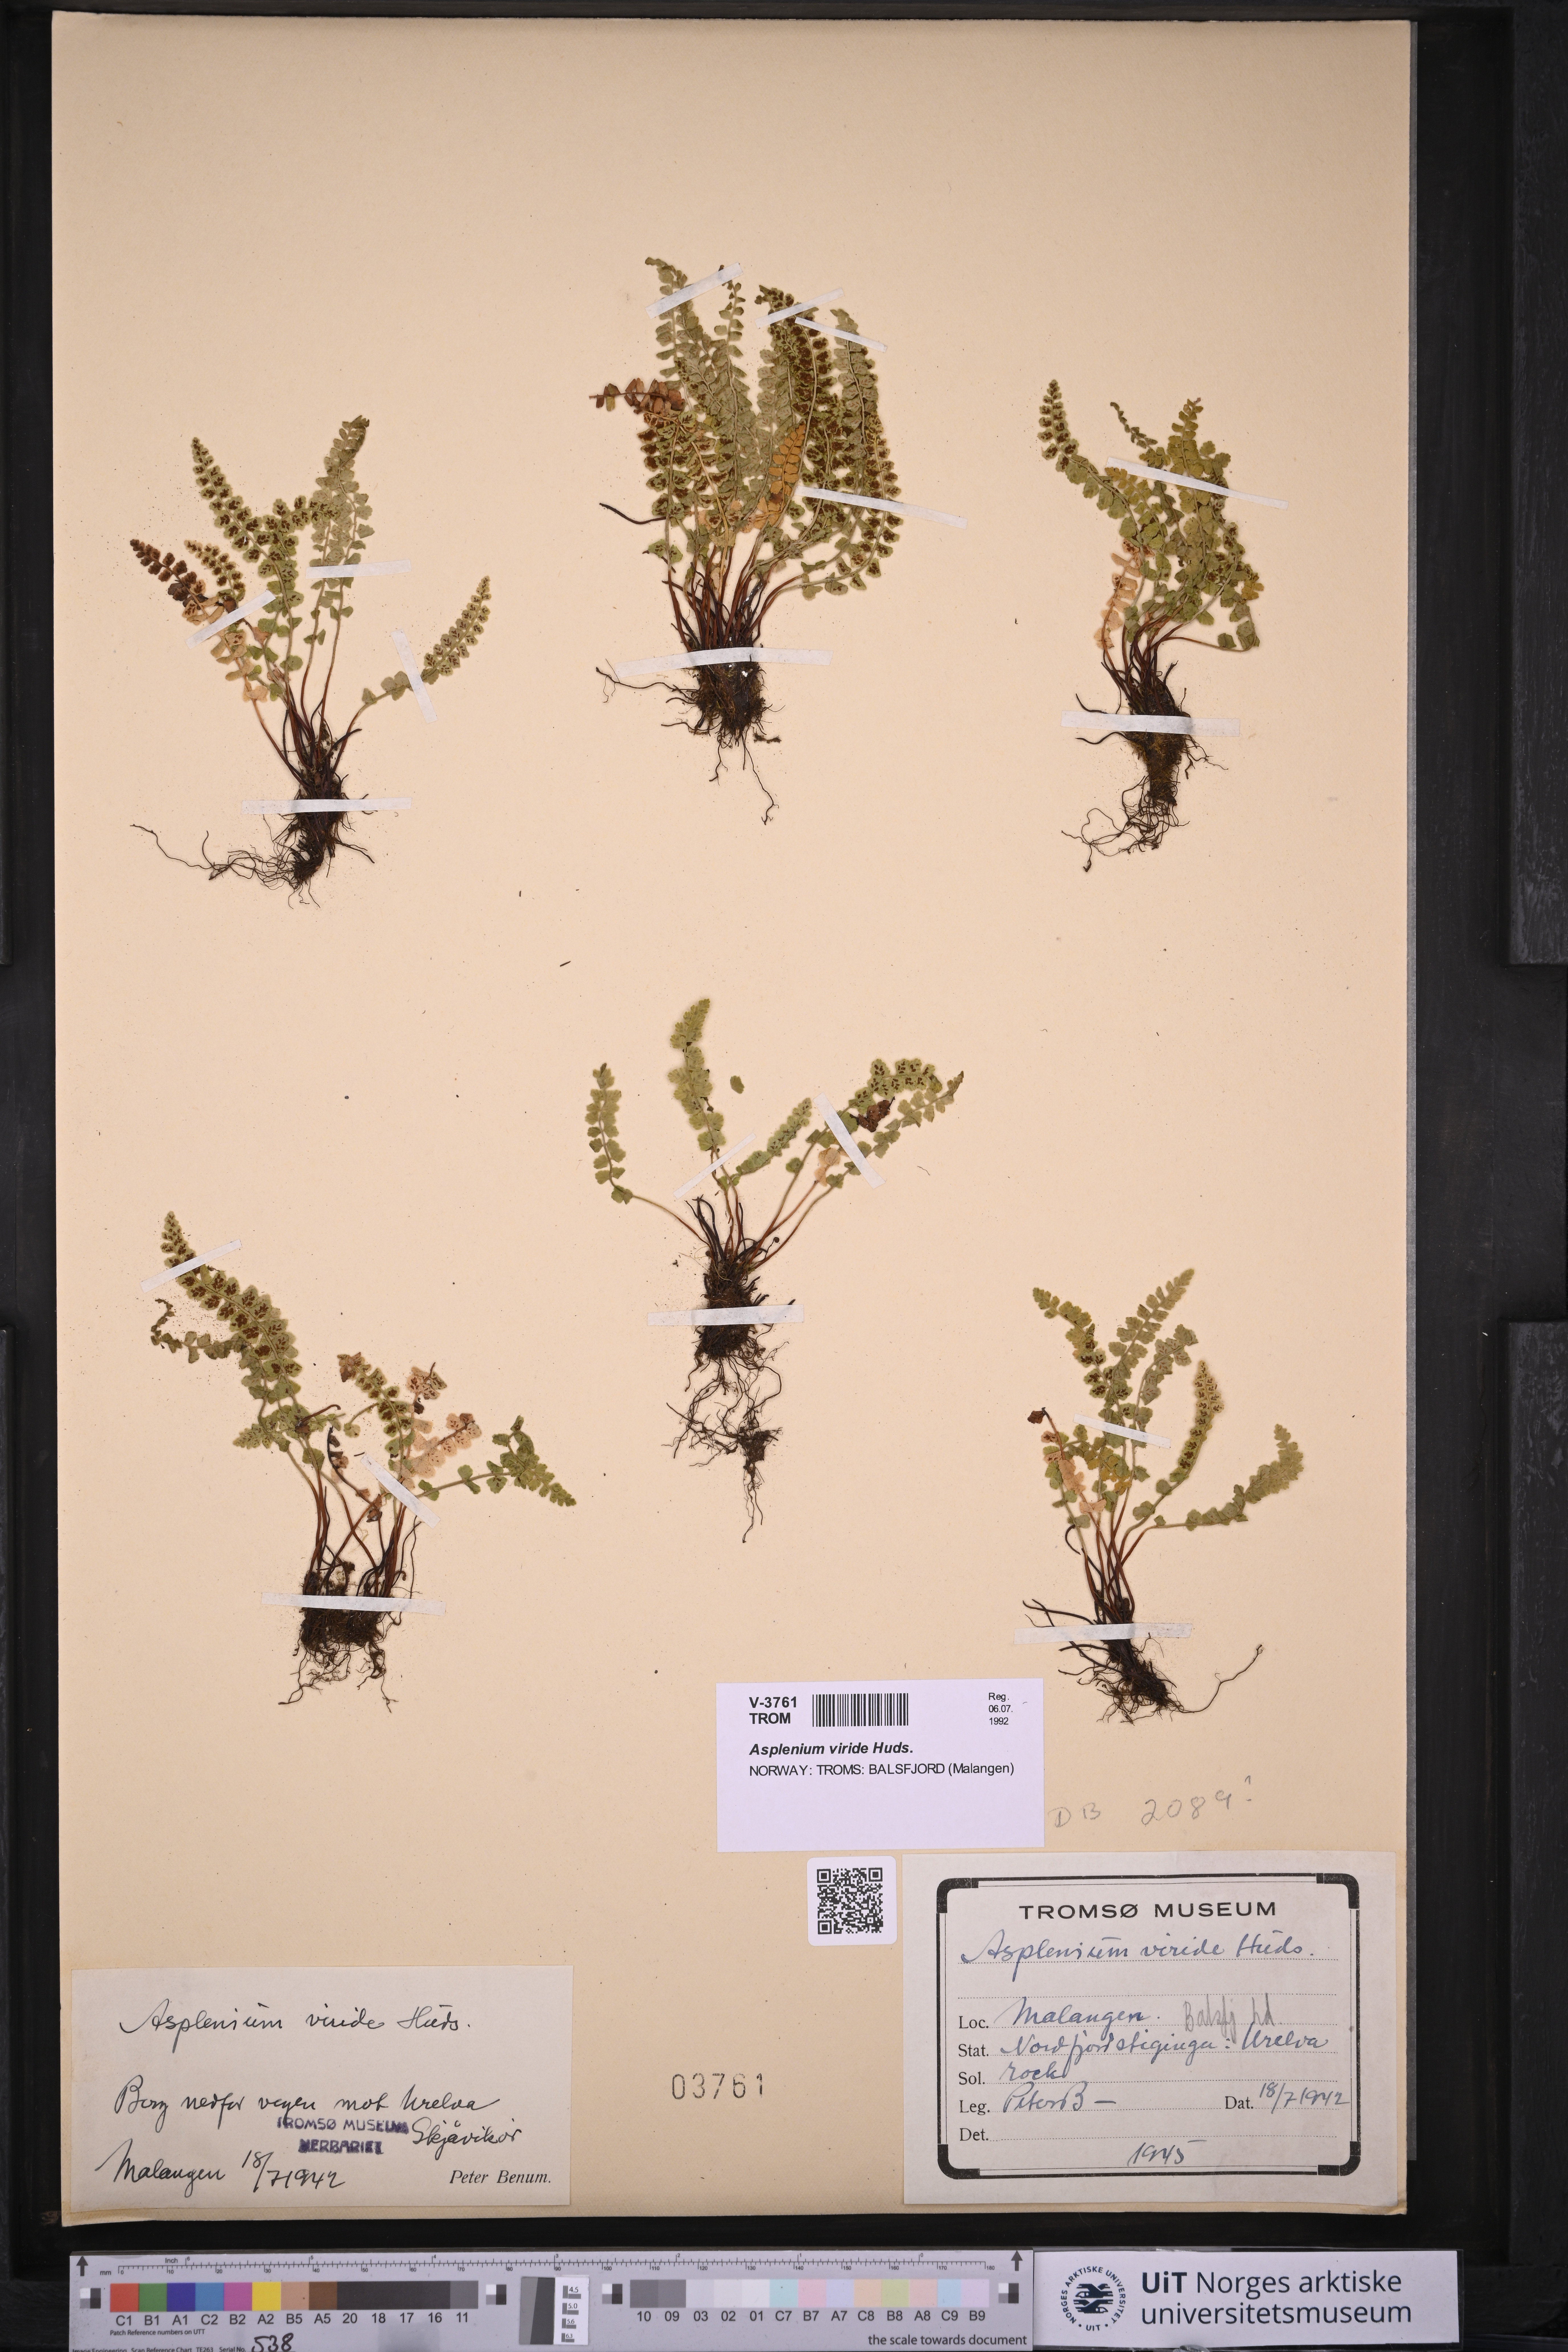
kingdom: Plantae
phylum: Tracheophyta
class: Polypodiopsida
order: Polypodiales
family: Aspleniaceae
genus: Asplenium
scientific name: Asplenium viride
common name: Green spleenwort
